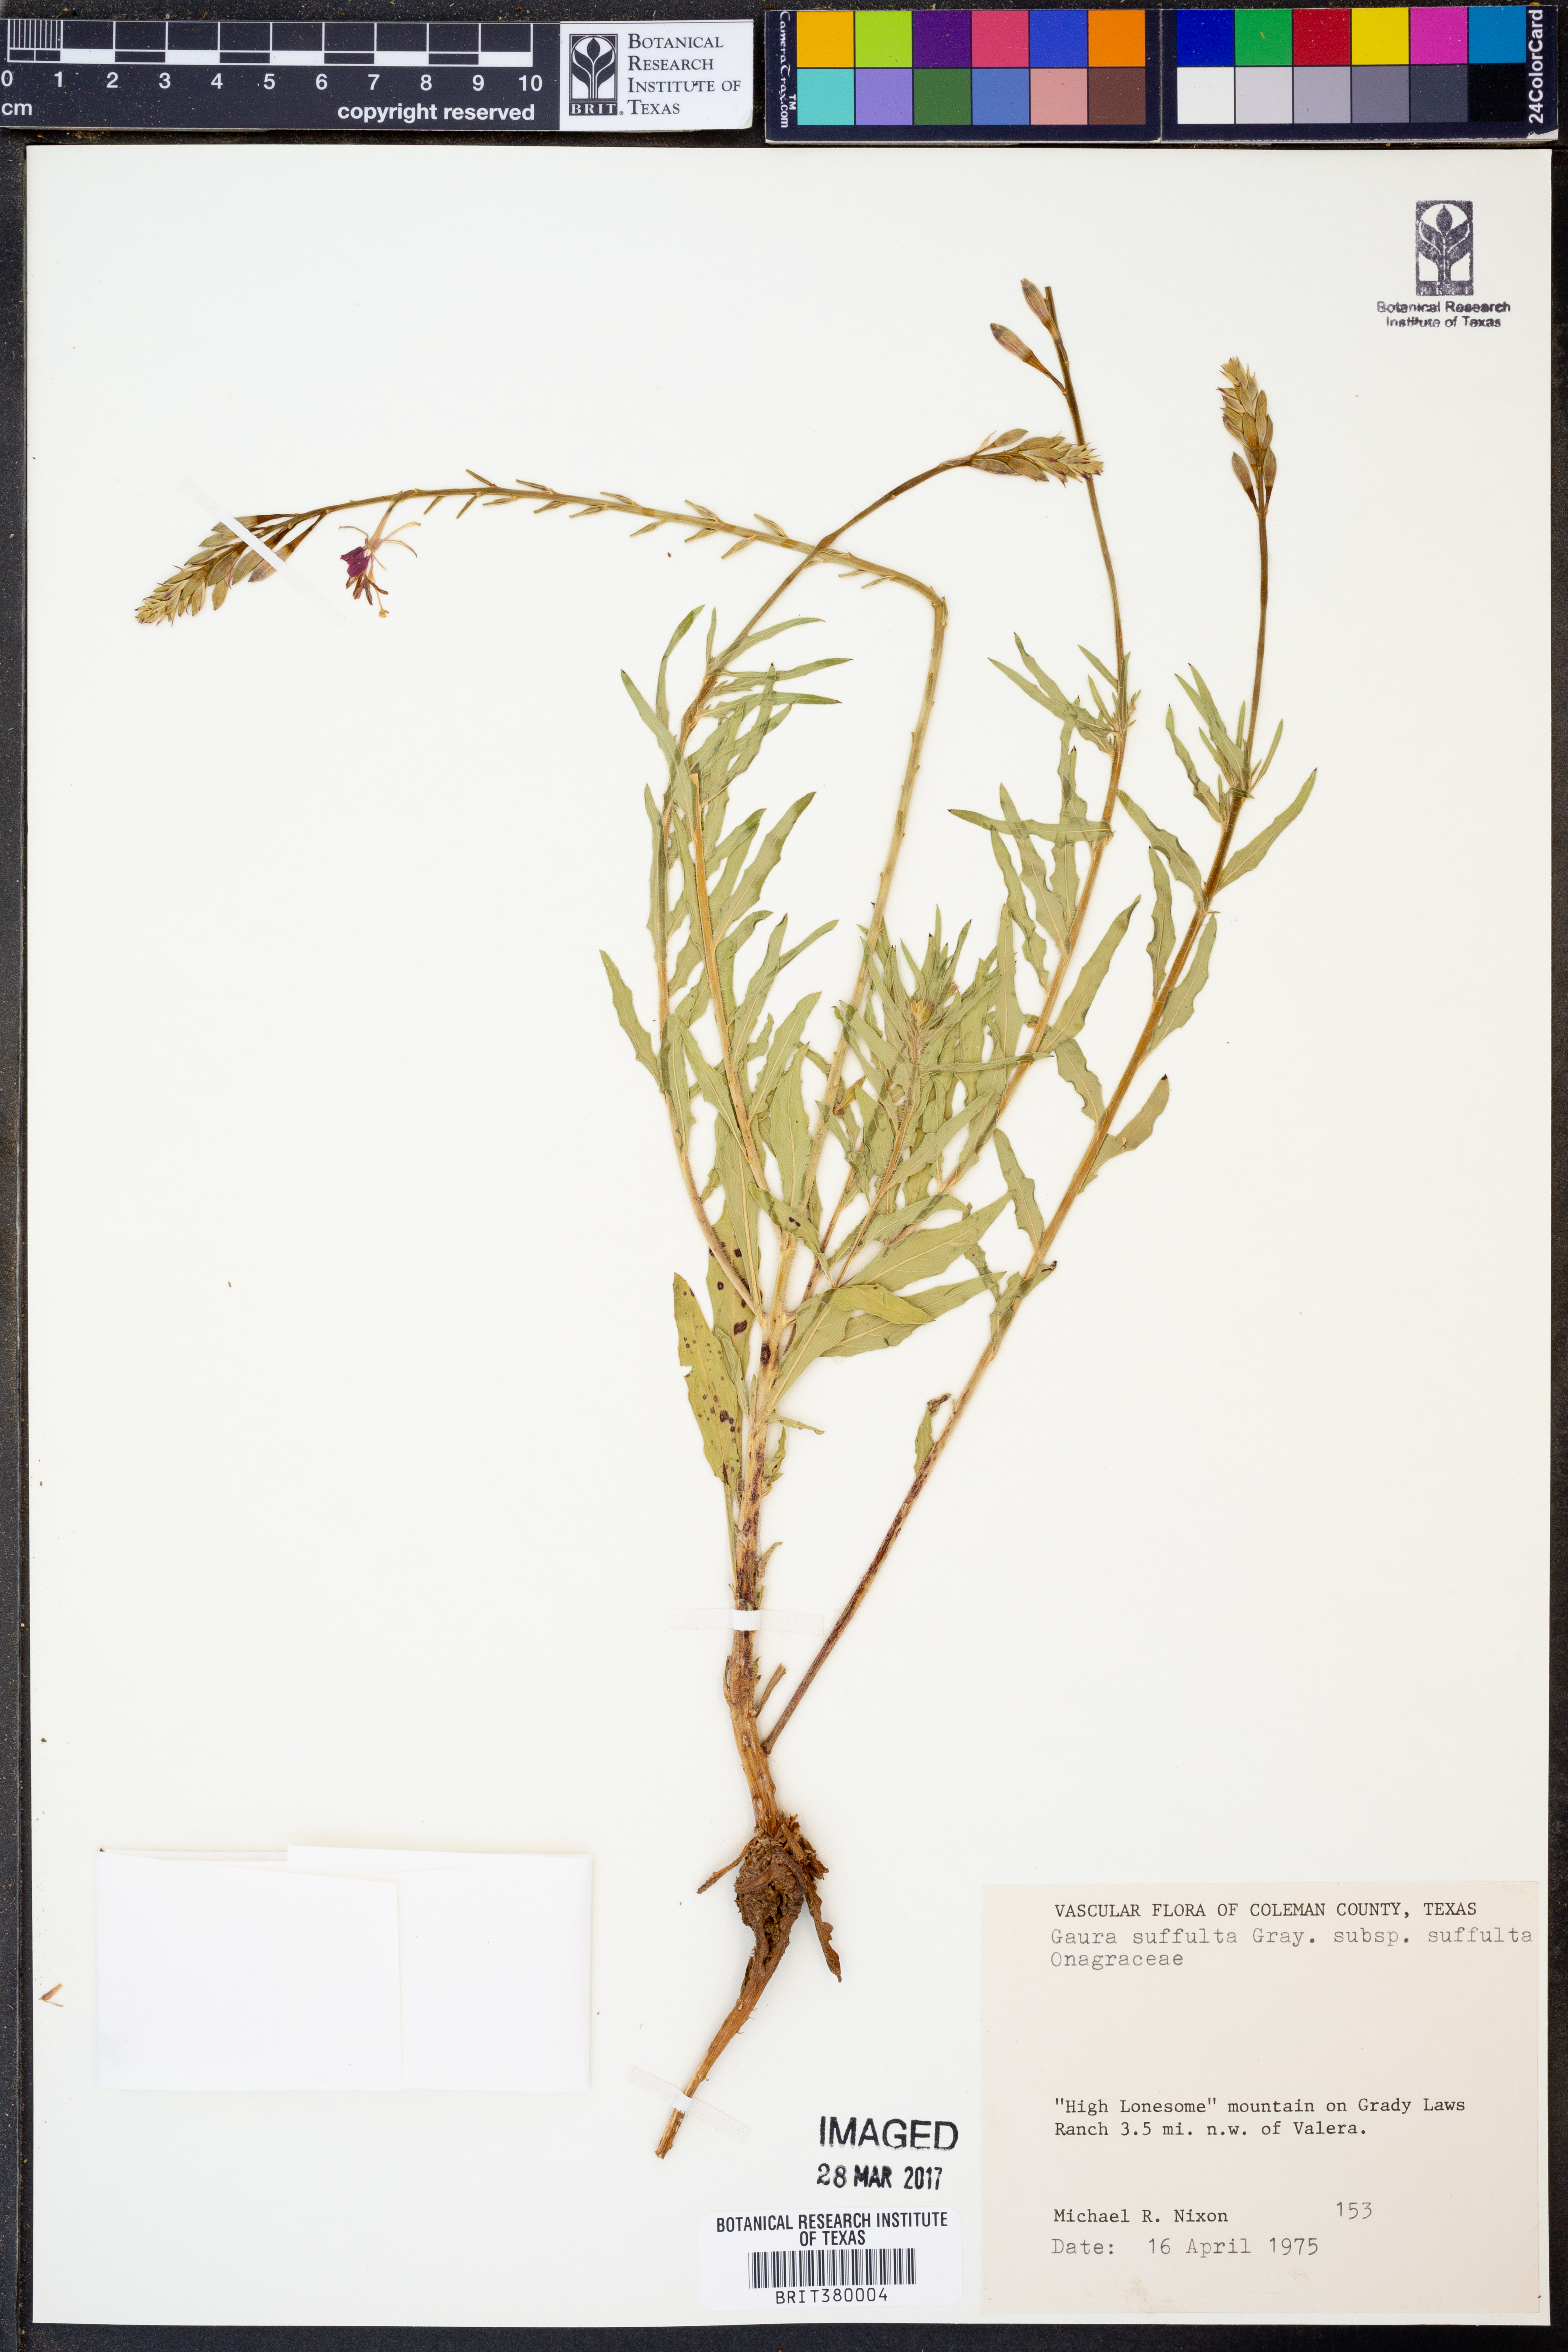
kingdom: Plantae
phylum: Tracheophyta
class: Magnoliopsida
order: Myrtales
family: Onagraceae
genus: Oenothera
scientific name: Oenothera suffulta
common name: Kisses
